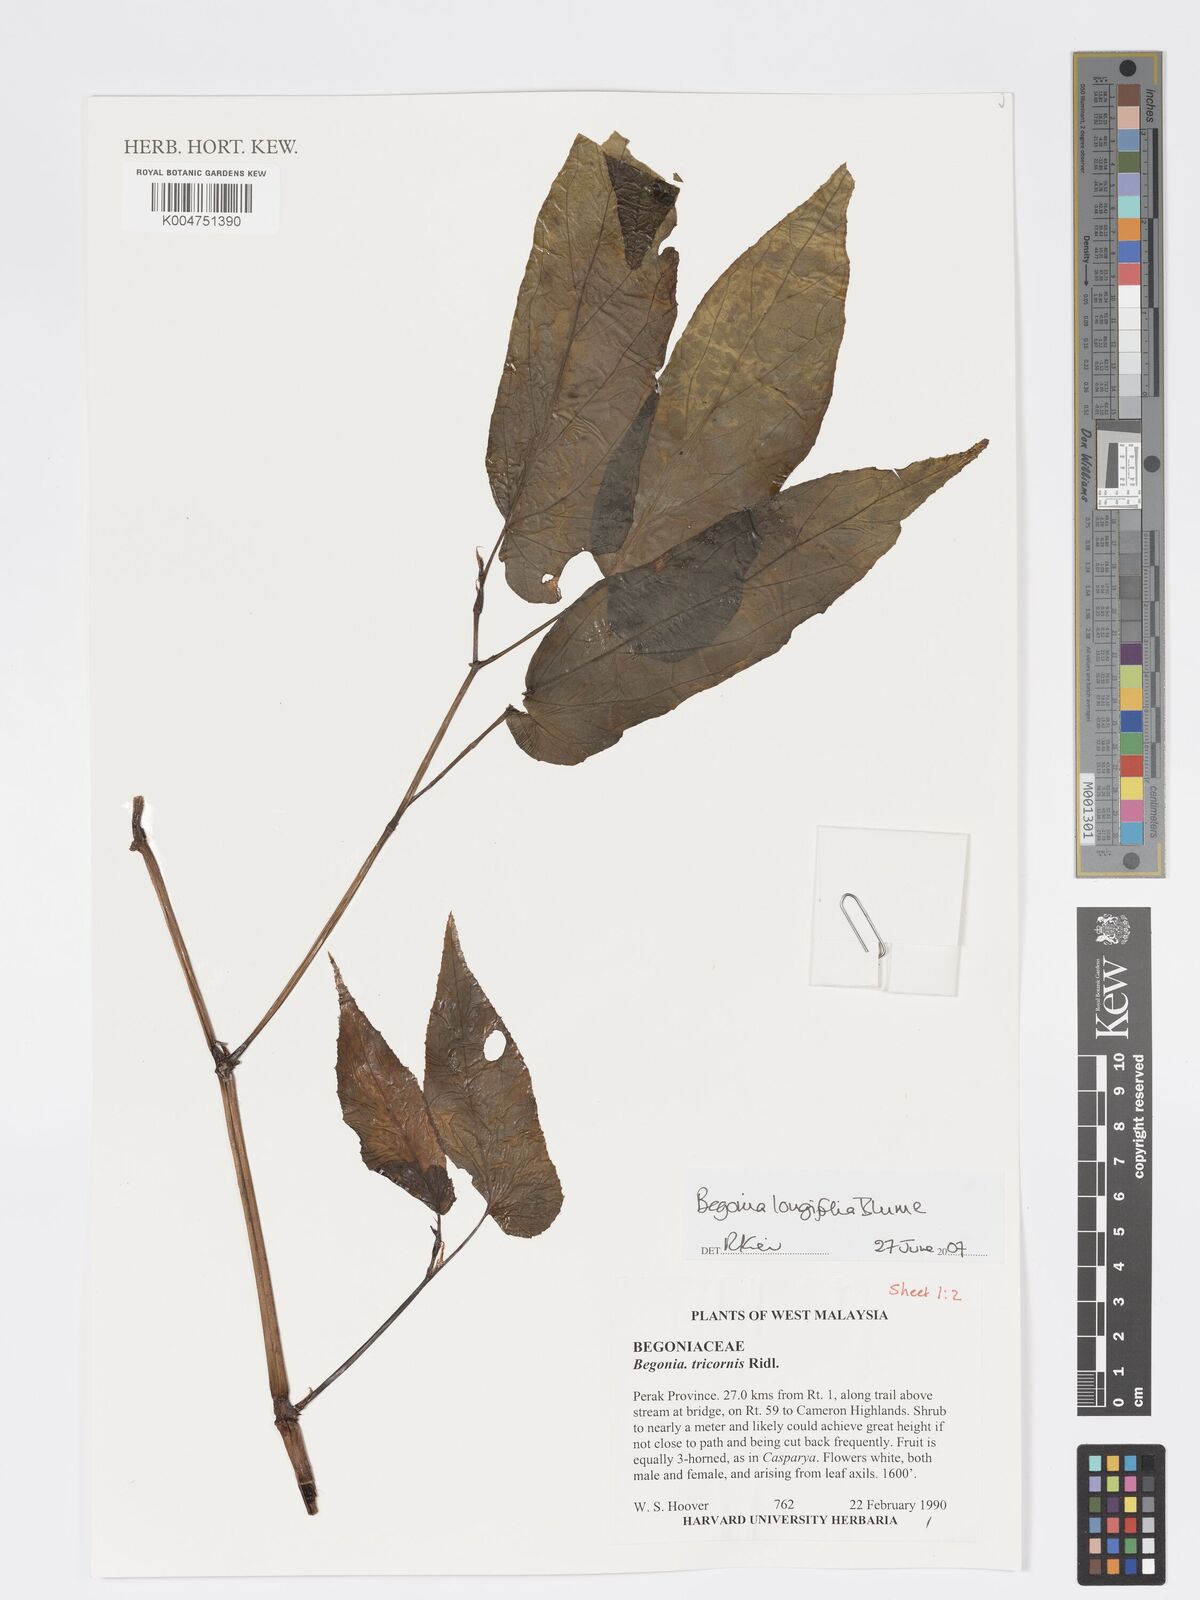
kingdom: Plantae
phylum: Tracheophyta
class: Magnoliopsida
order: Cucurbitales
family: Begoniaceae
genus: Begonia
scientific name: Begonia longifolia
